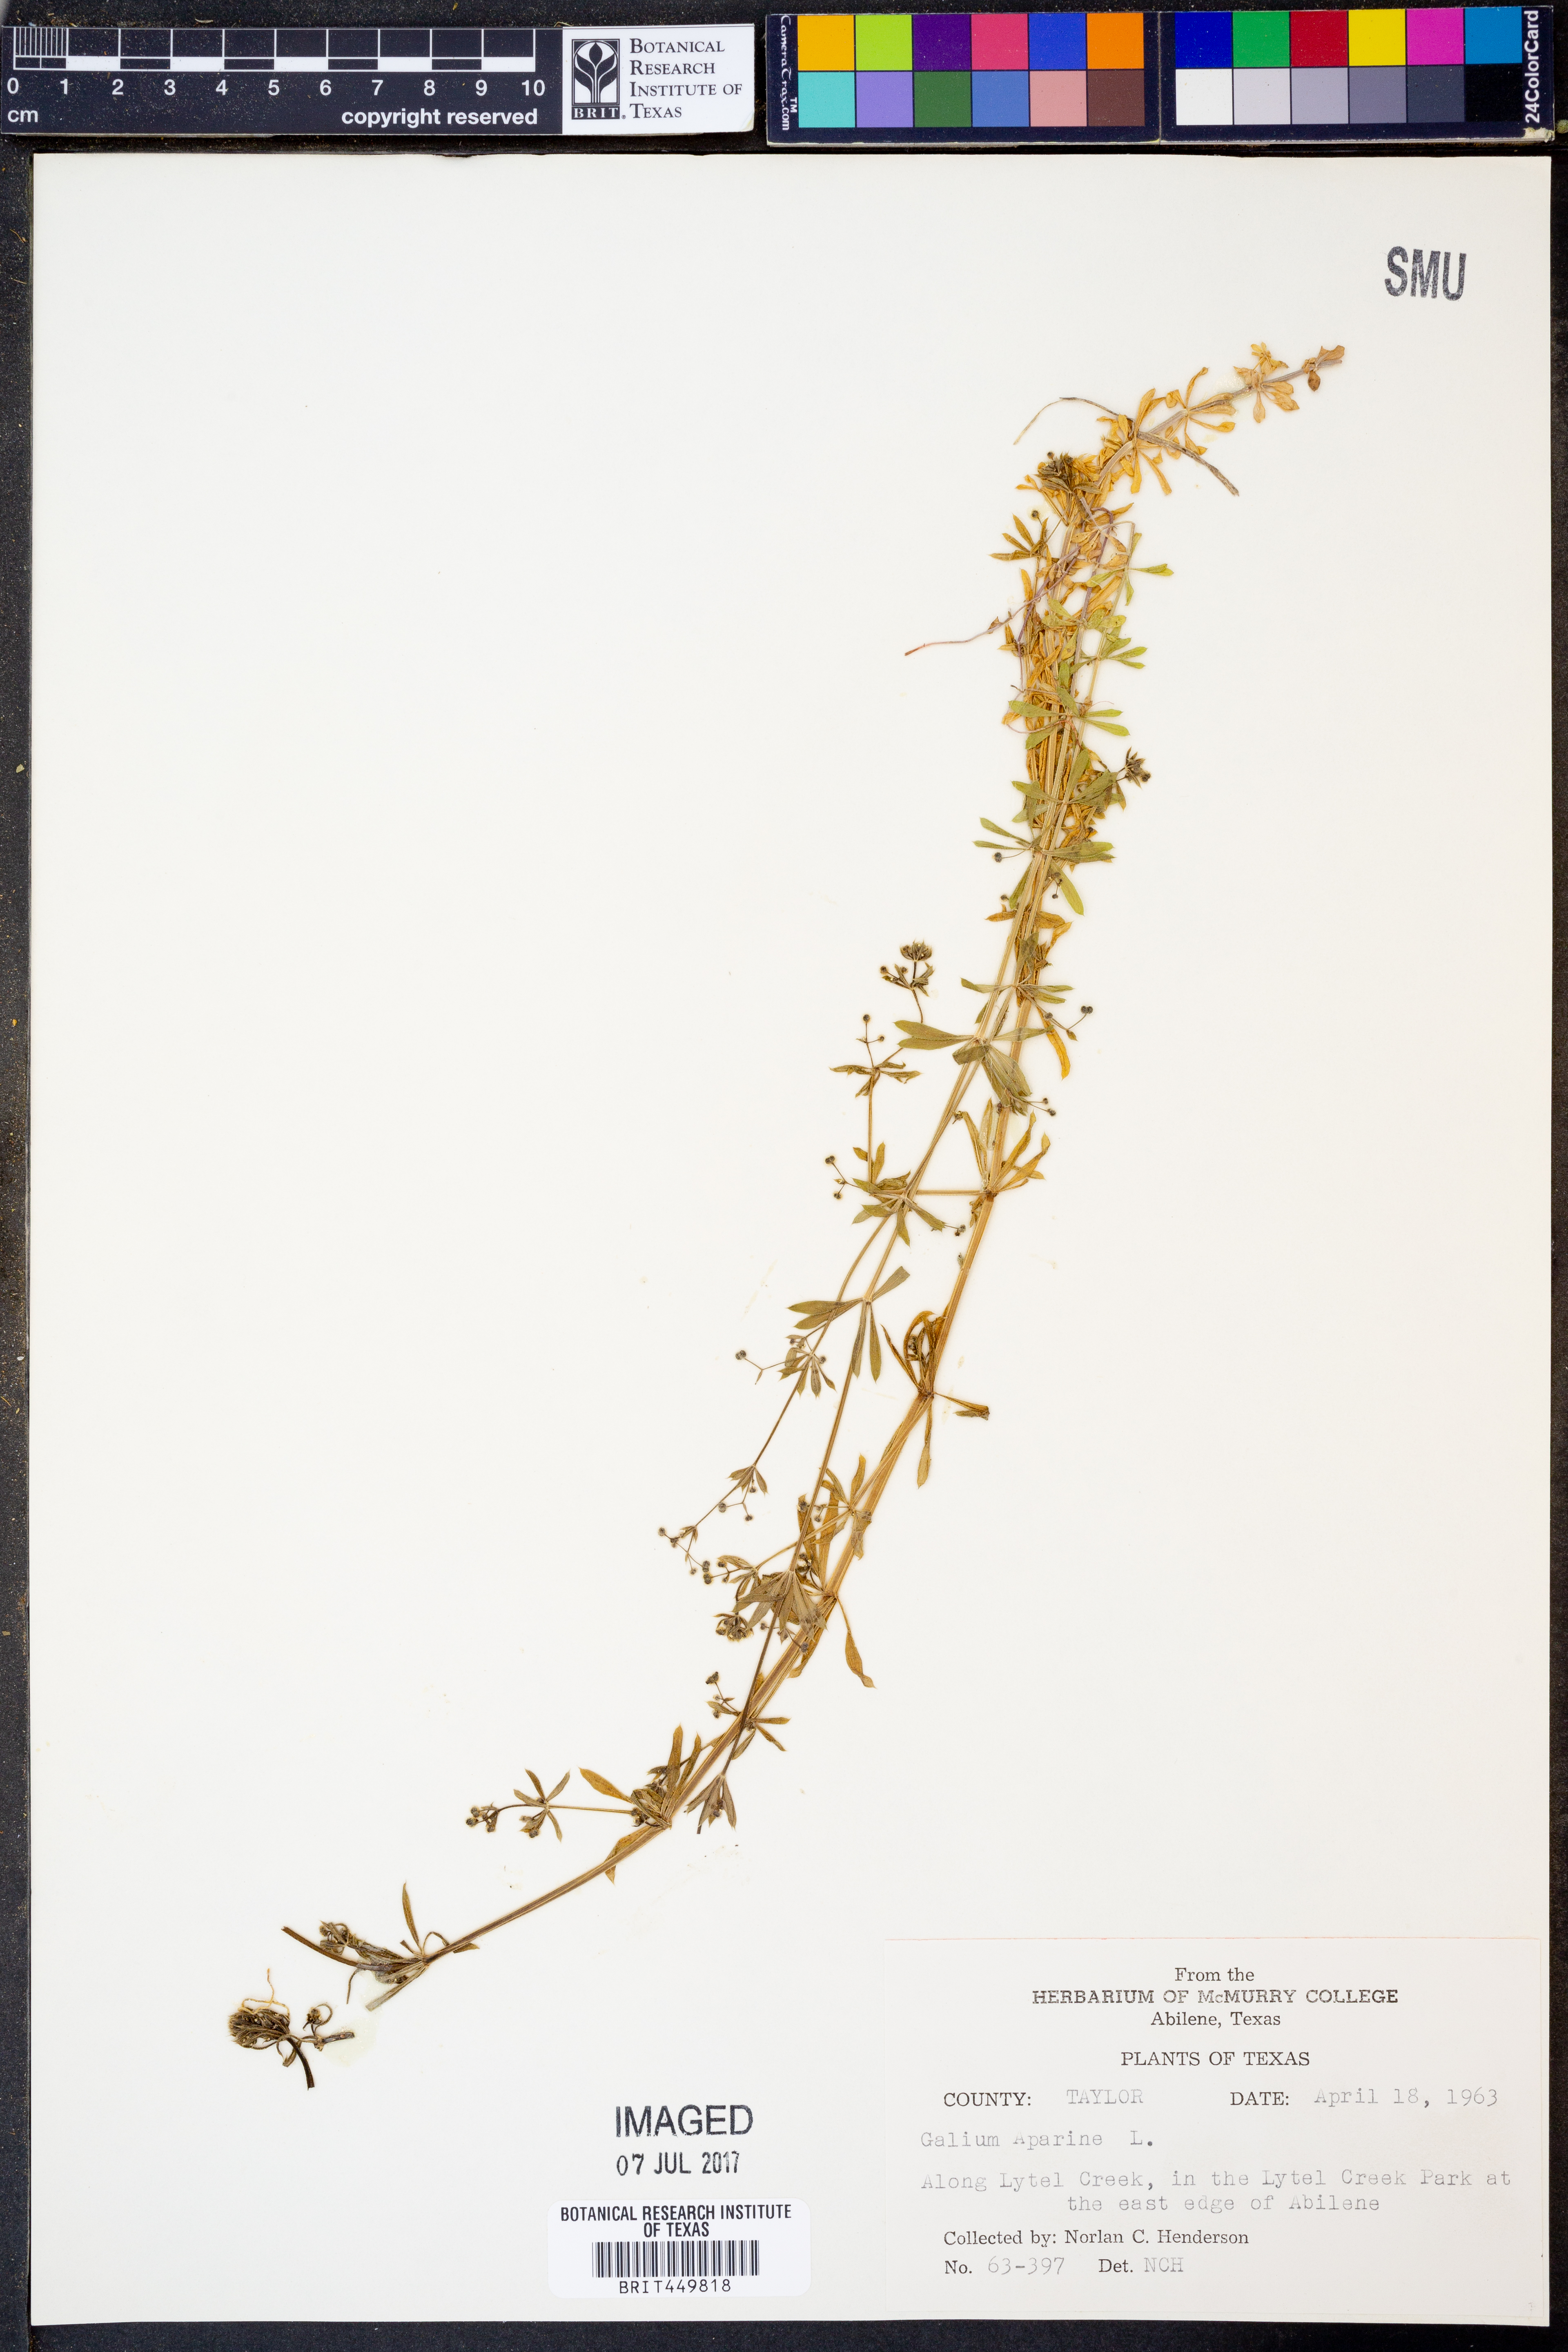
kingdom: Plantae
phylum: Tracheophyta
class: Magnoliopsida
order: Gentianales
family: Rubiaceae
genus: Galium
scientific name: Galium aparine
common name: Cleavers
